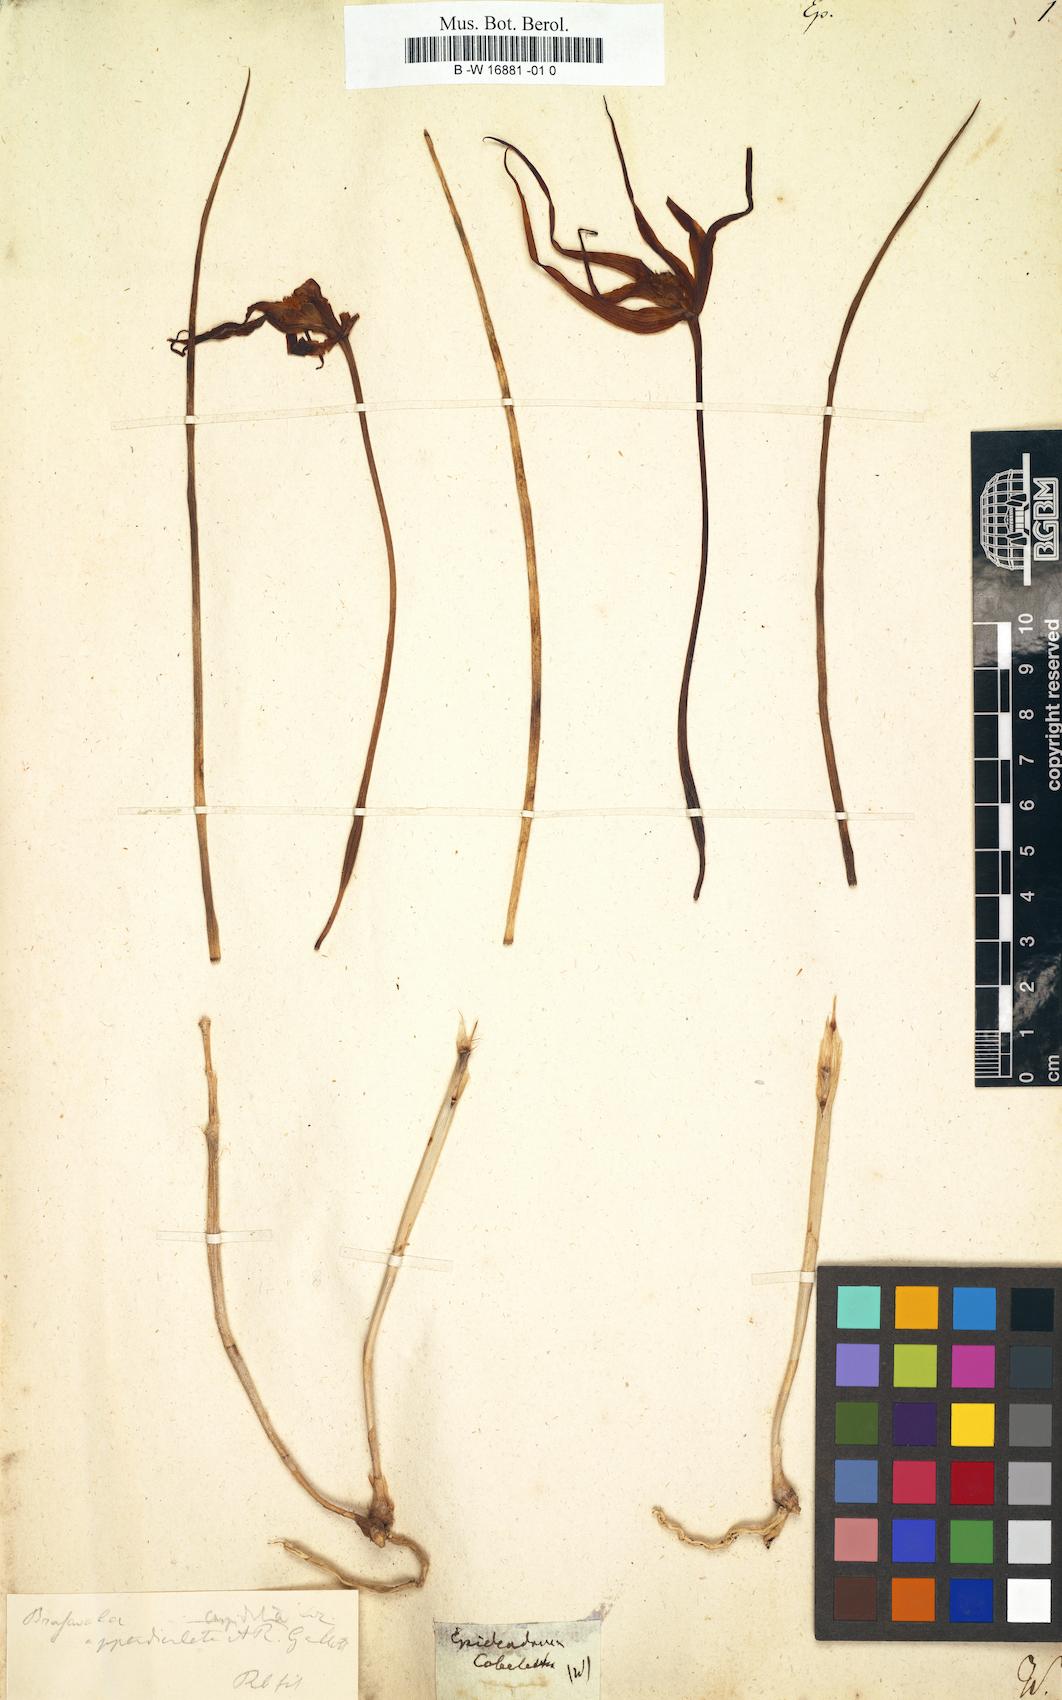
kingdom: Plantae
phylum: Tracheophyta
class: Liliopsida
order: Asparagales
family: Orchidaceae
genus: Epidendrum
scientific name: Epidendrum
